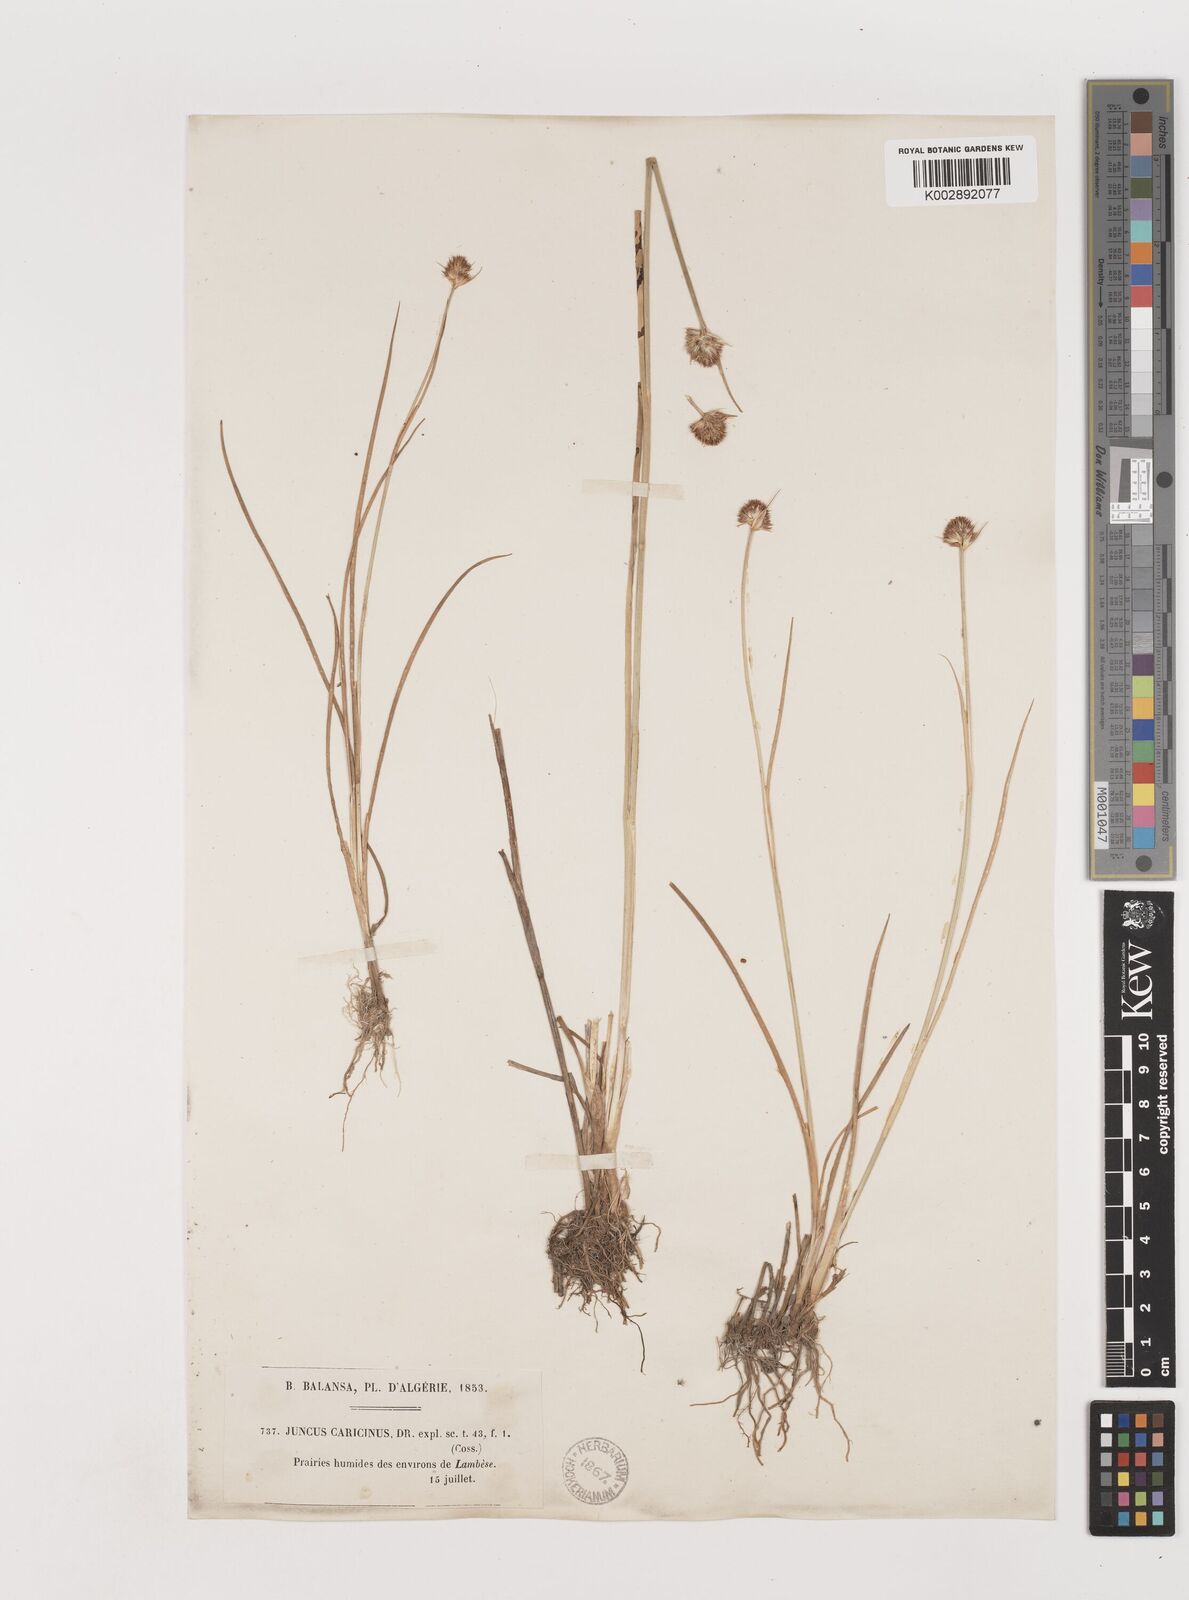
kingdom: Plantae
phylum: Tracheophyta
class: Liliopsida
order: Poales
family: Juncaceae
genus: Juncus
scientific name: Juncus valvatus
